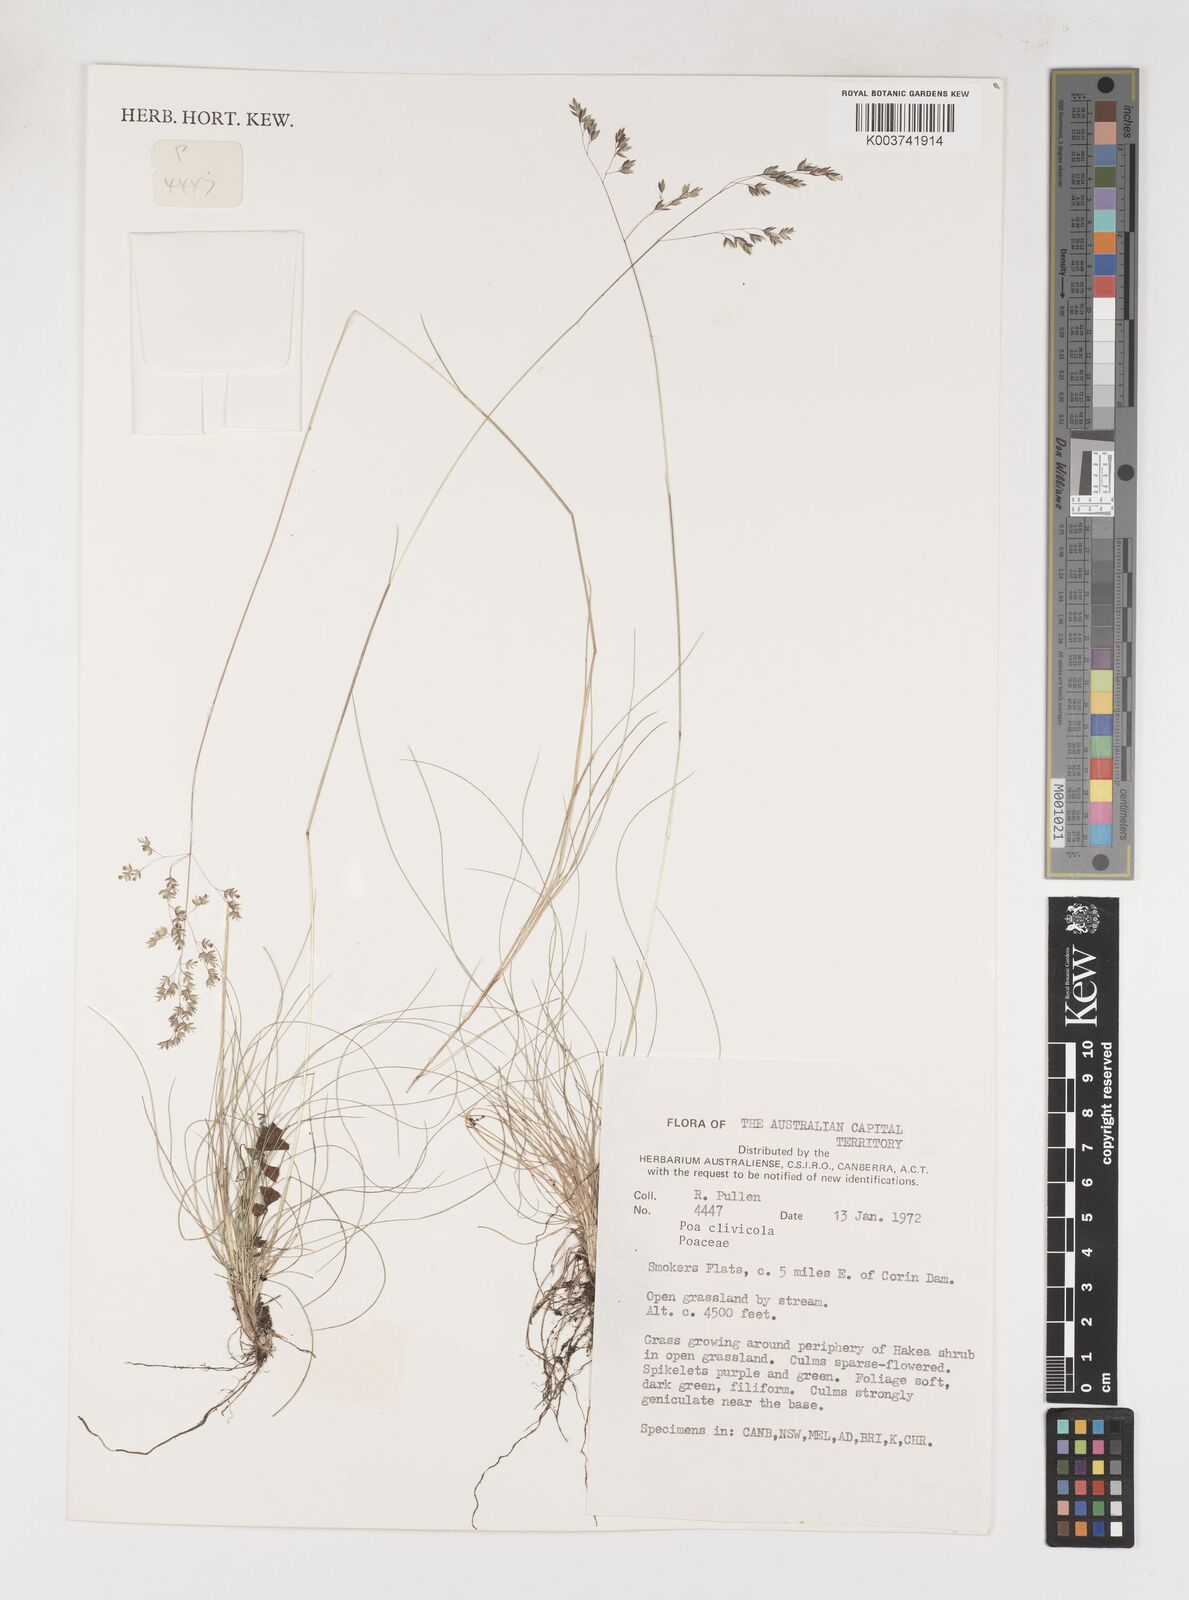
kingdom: Plantae
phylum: Tracheophyta
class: Liliopsida
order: Poales
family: Poaceae
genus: Poa
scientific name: Poa clivicola
